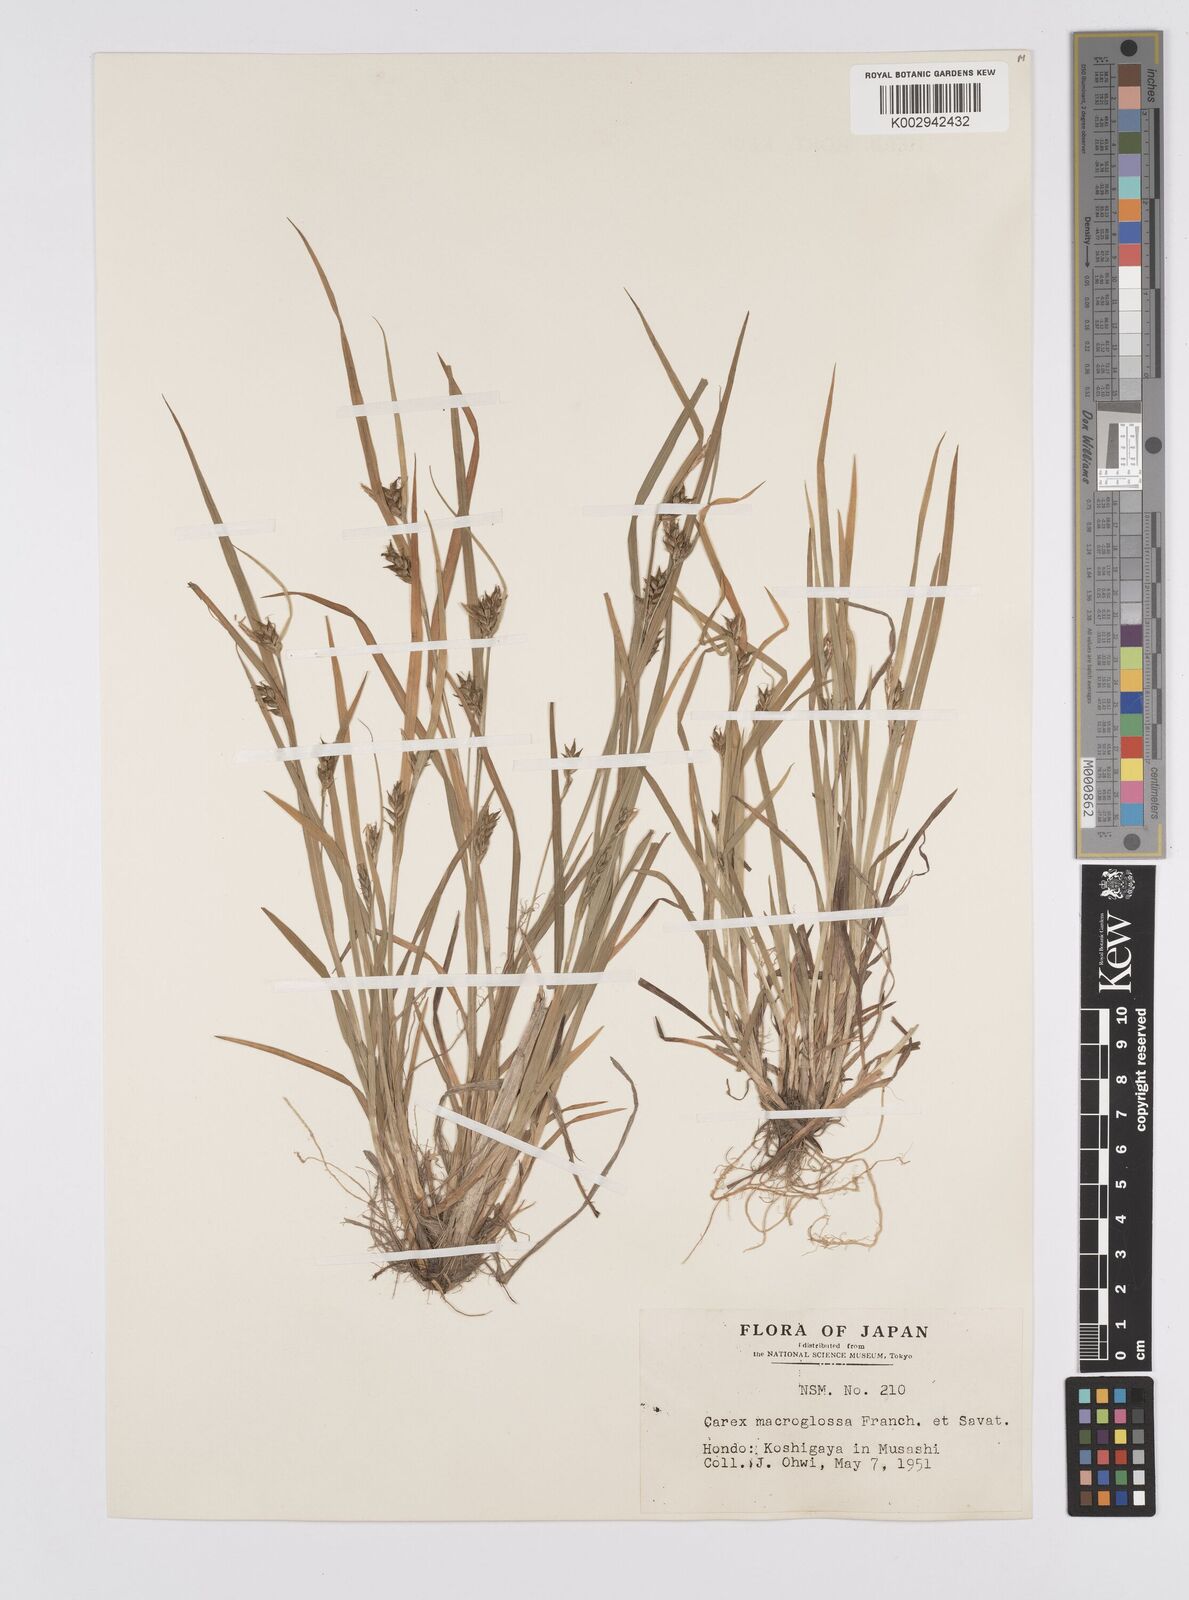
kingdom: Plantae
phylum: Tracheophyta
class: Liliopsida
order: Poales
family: Cyperaceae
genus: Carex
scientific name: Carex jackiana
